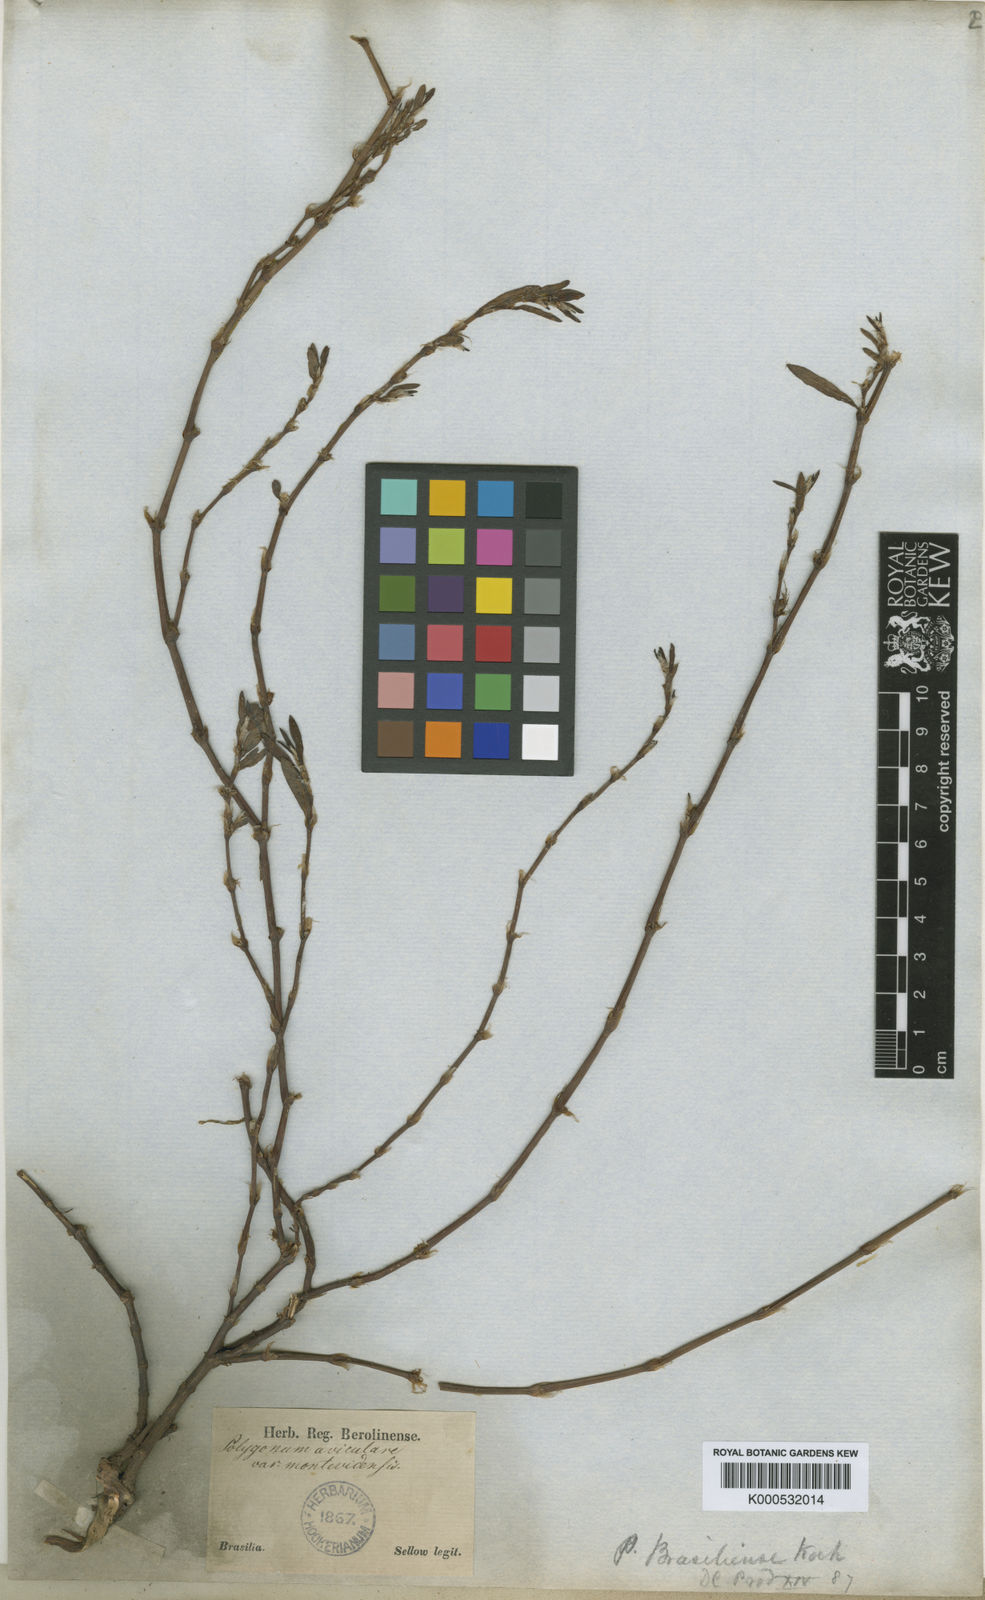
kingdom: Plantae
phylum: Tracheophyta
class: Magnoliopsida
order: Caryophyllales
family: Polygonaceae
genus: Polygonum
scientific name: Polygonum brasiliense
